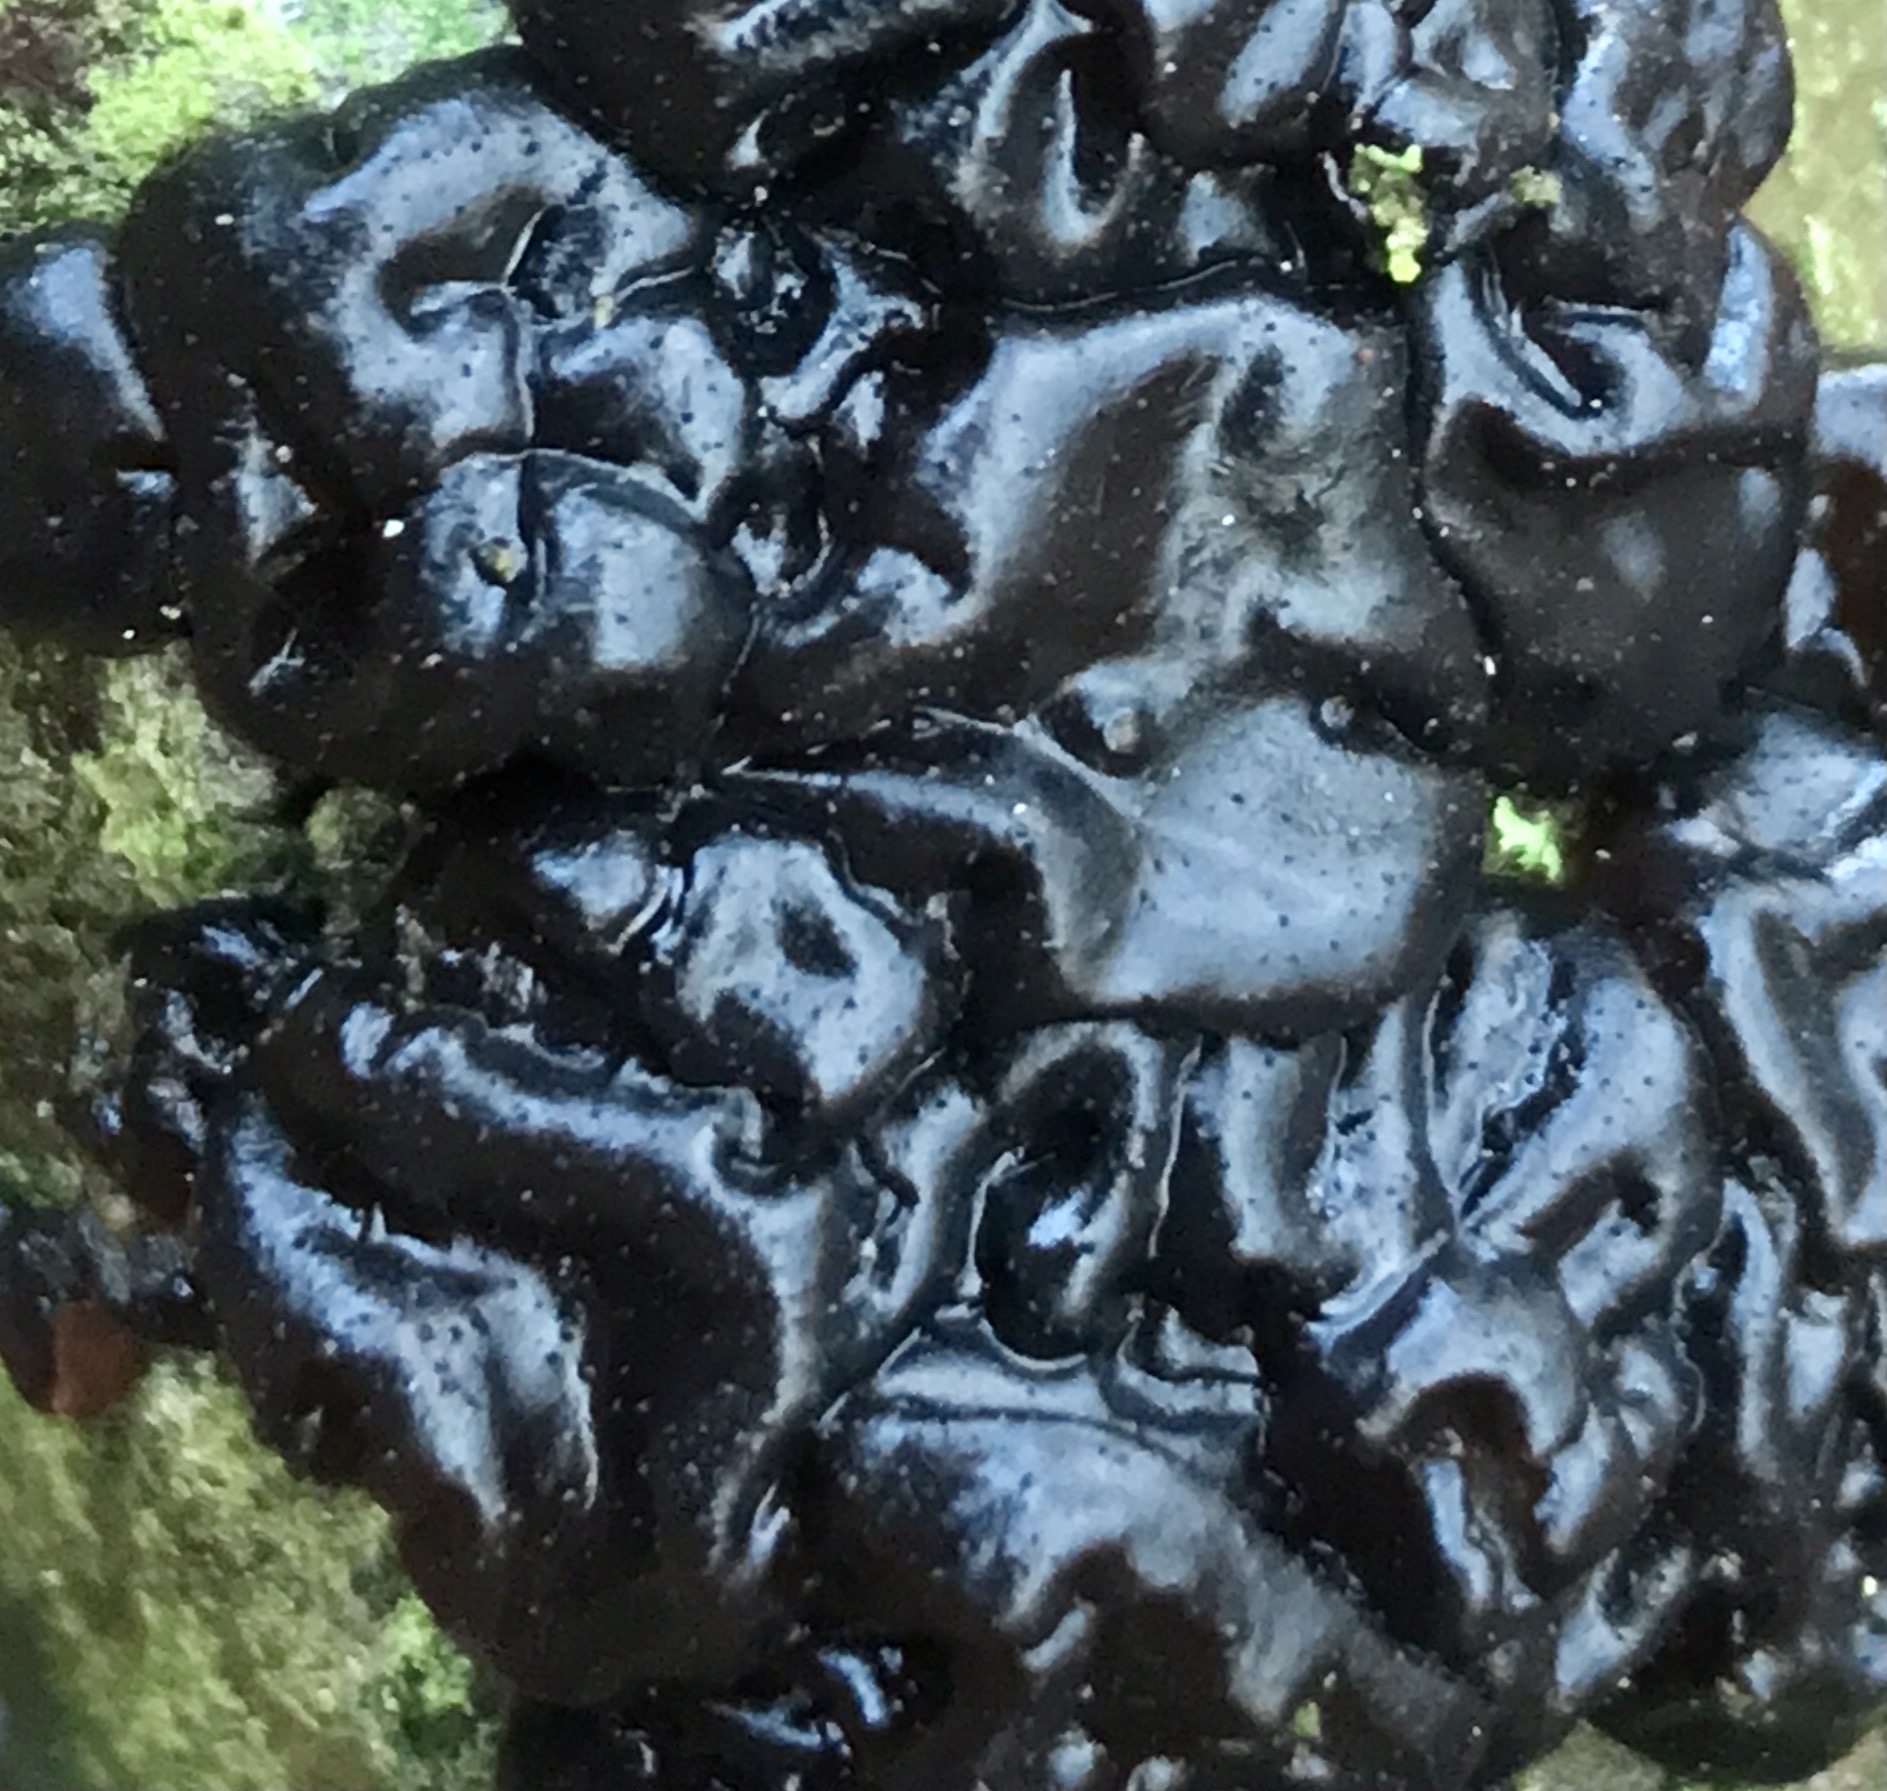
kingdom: Fungi
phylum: Basidiomycota
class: Agaricomycetes
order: Auriculariales
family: Auriculariaceae
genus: Exidia
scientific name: Exidia nigricans
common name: almindelig bævretop
